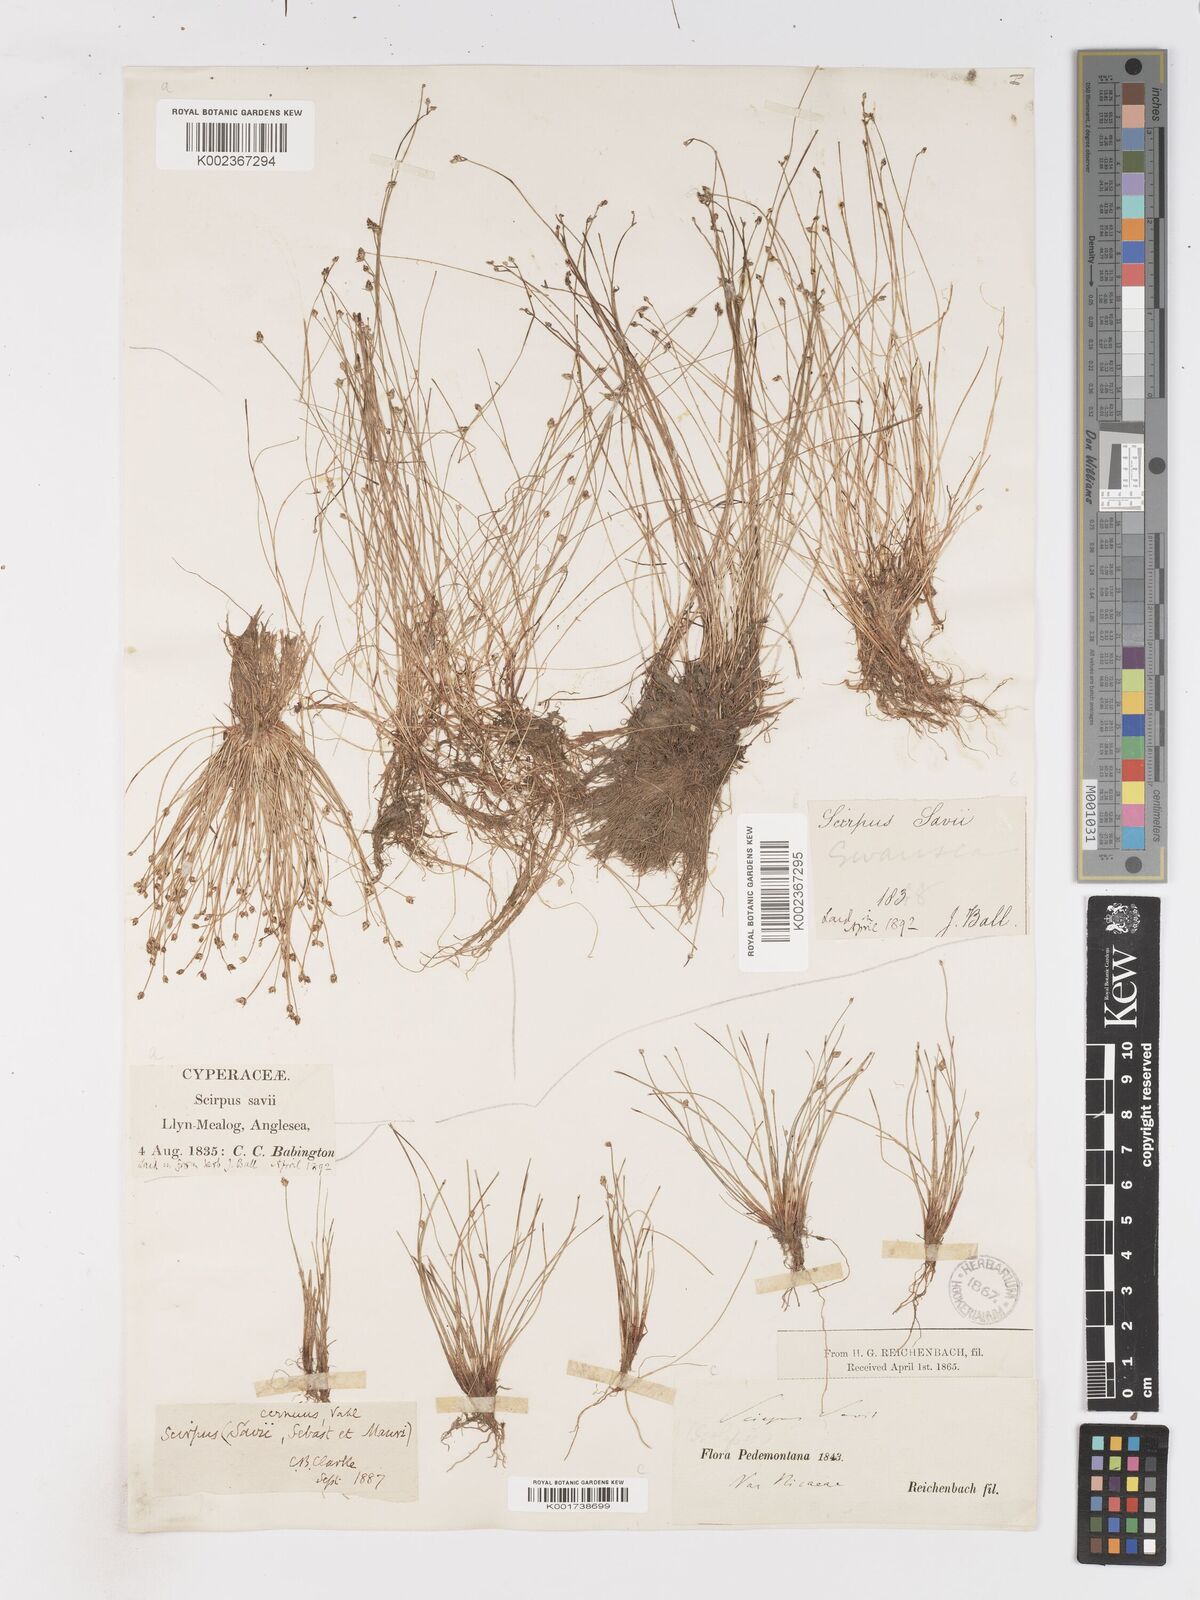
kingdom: Plantae
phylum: Tracheophyta
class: Liliopsida
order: Poales
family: Cyperaceae
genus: Isolepis
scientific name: Isolepis cernua
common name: Slender club-rush
